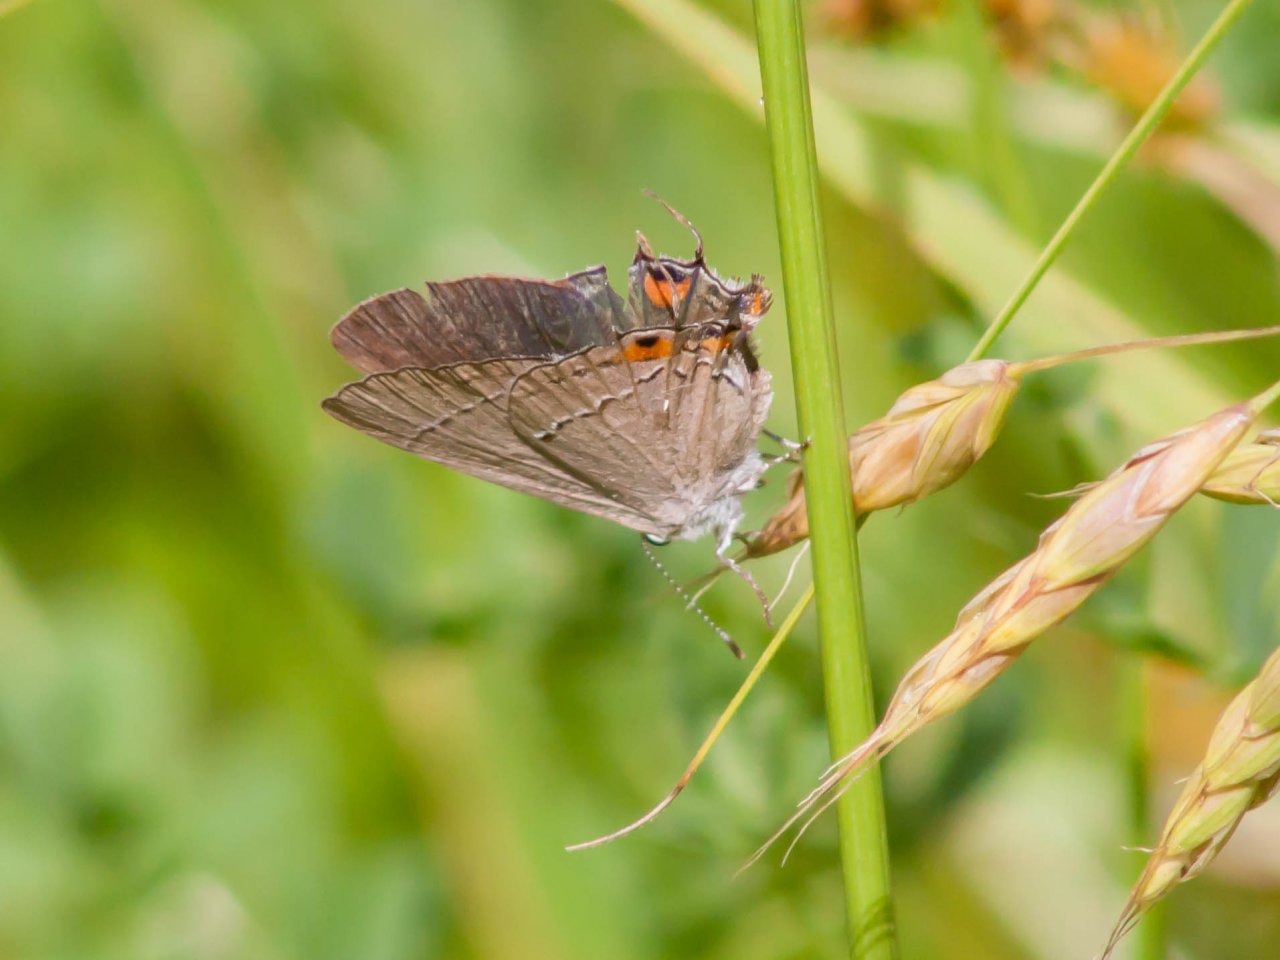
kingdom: Animalia
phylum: Arthropoda
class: Insecta
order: Lepidoptera
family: Lycaenidae
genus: Strymon
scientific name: Strymon melinus
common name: Gray Hairstreak
